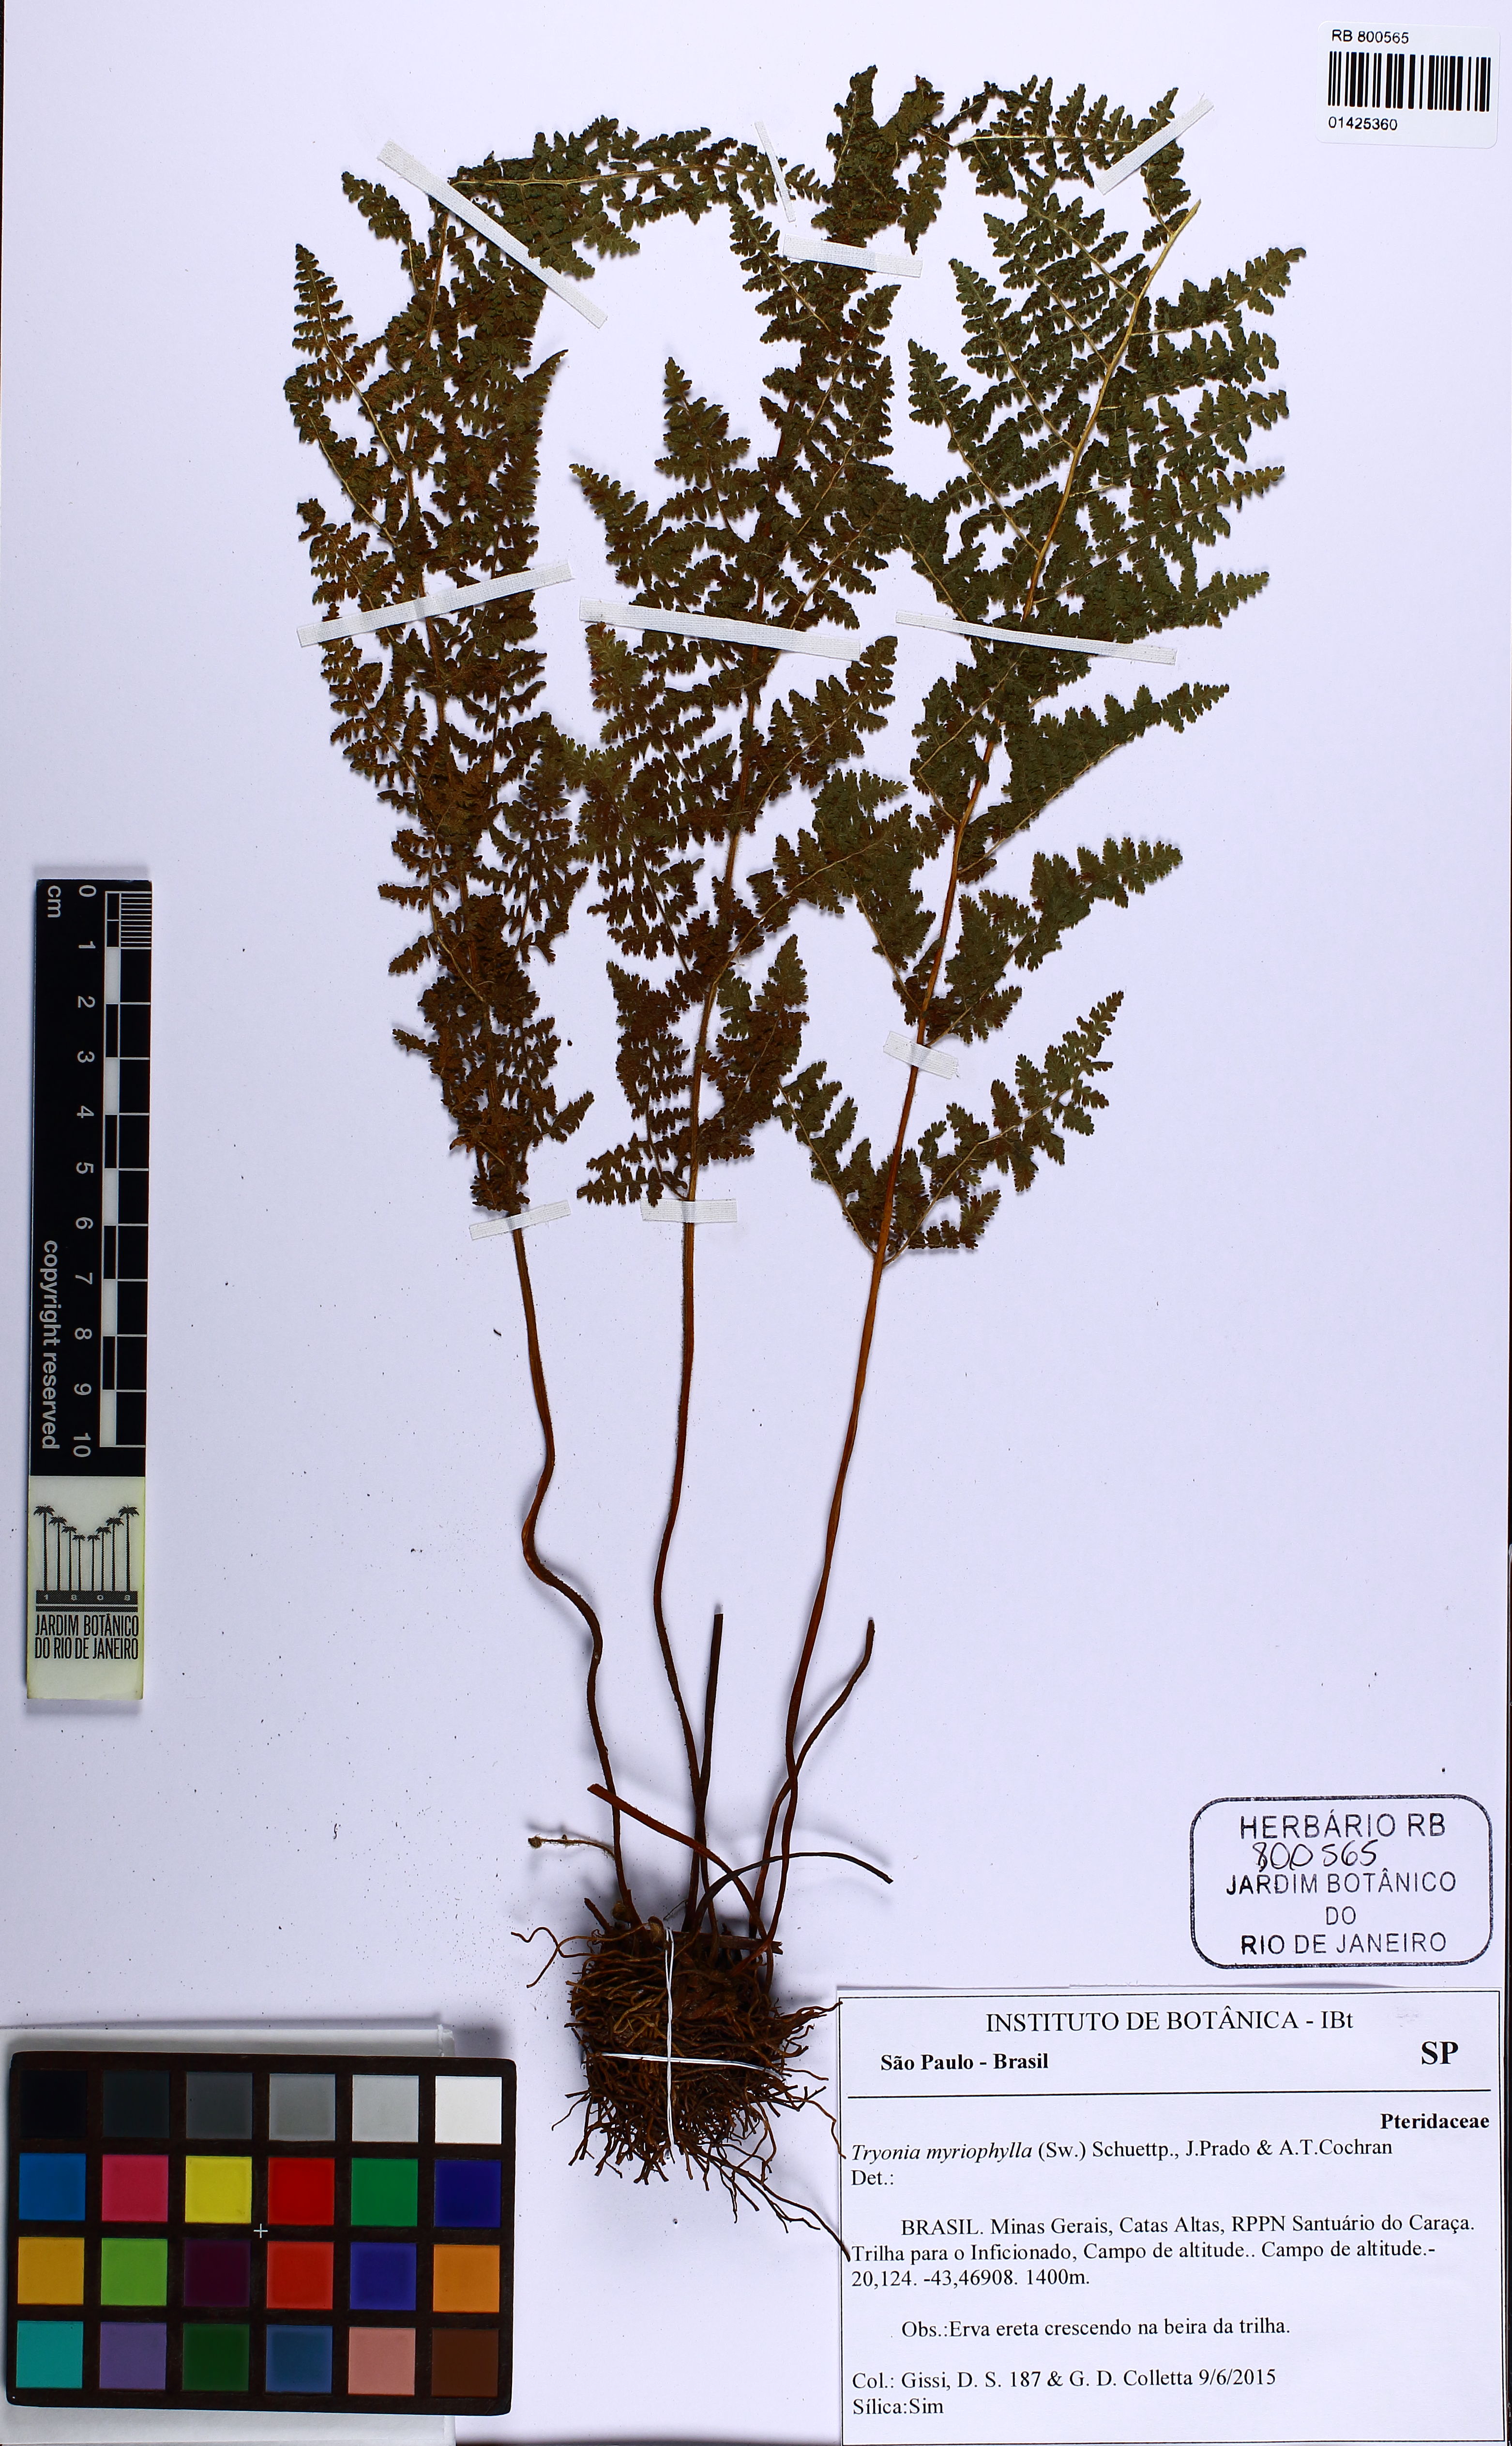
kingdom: Plantae
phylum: Tracheophyta
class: Polypodiopsida
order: Polypodiales
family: Pteridaceae
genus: Tryonia
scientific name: Tryonia myriophylla
